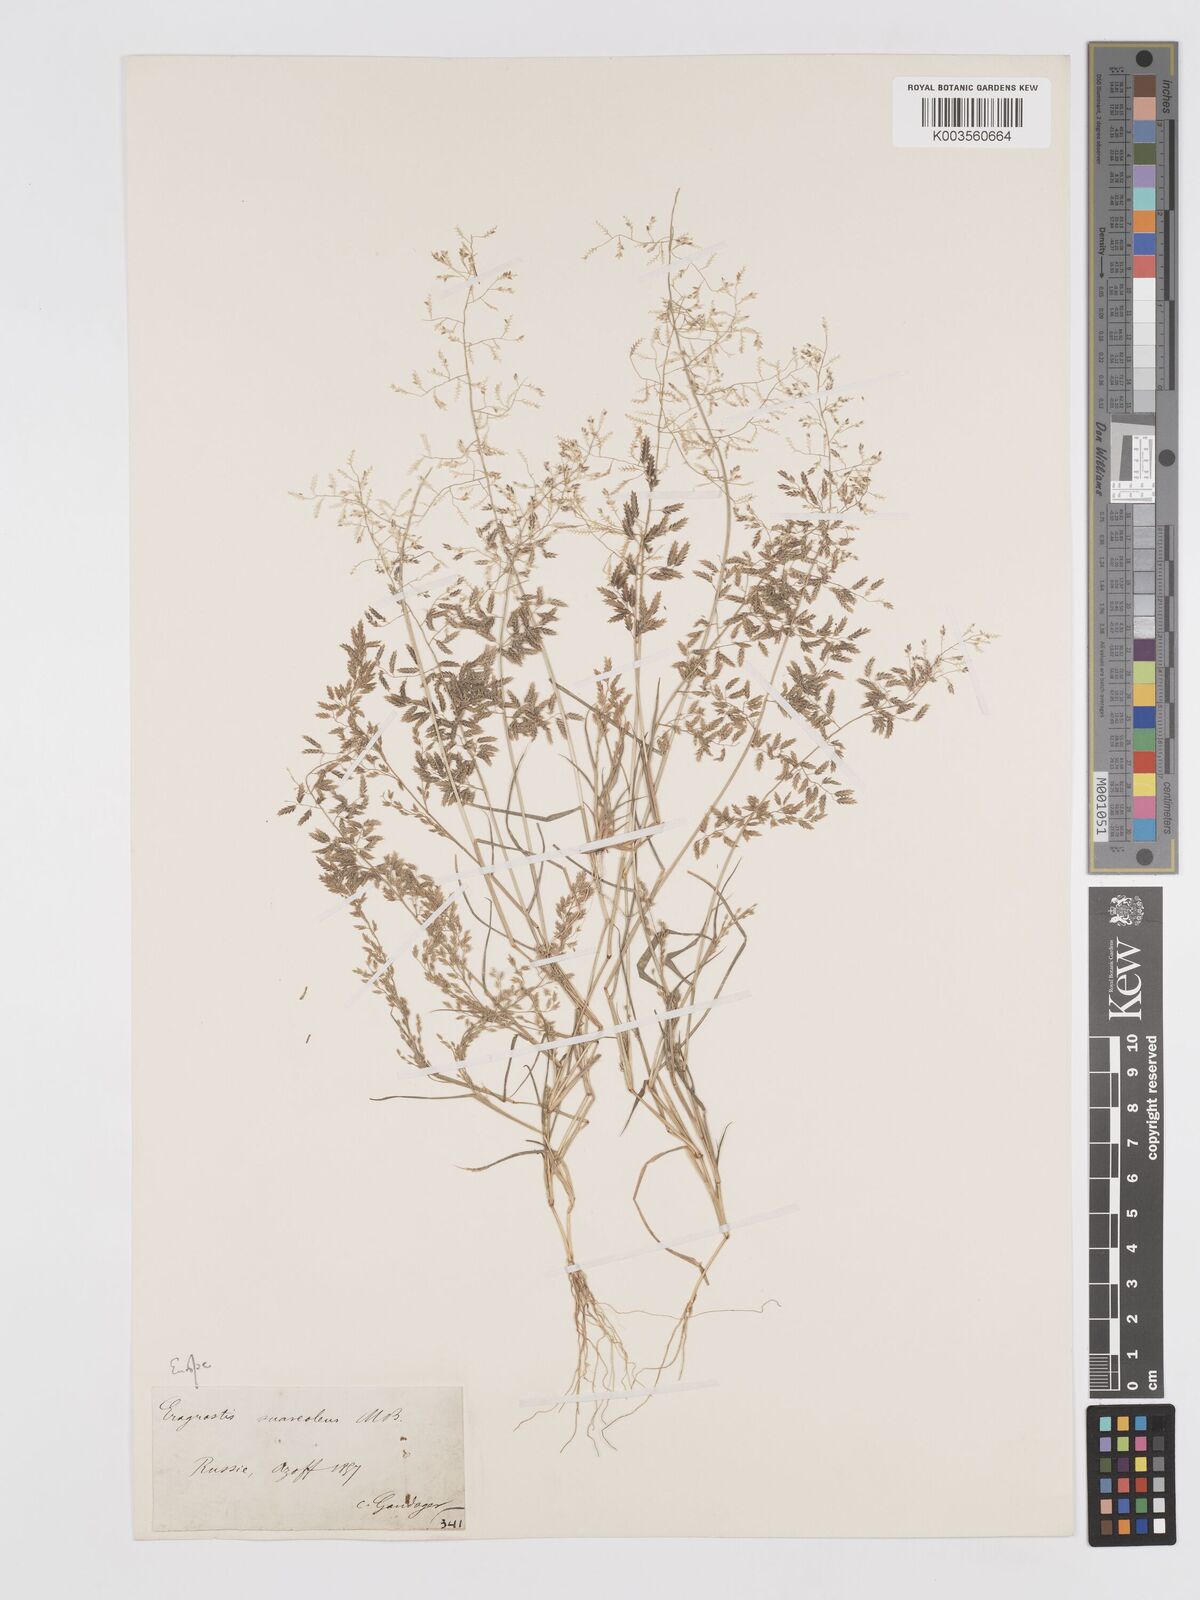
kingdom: Plantae
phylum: Tracheophyta
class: Liliopsida
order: Poales
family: Poaceae
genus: Eragrostis
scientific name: Eragrostis minor
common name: Small love-grass
